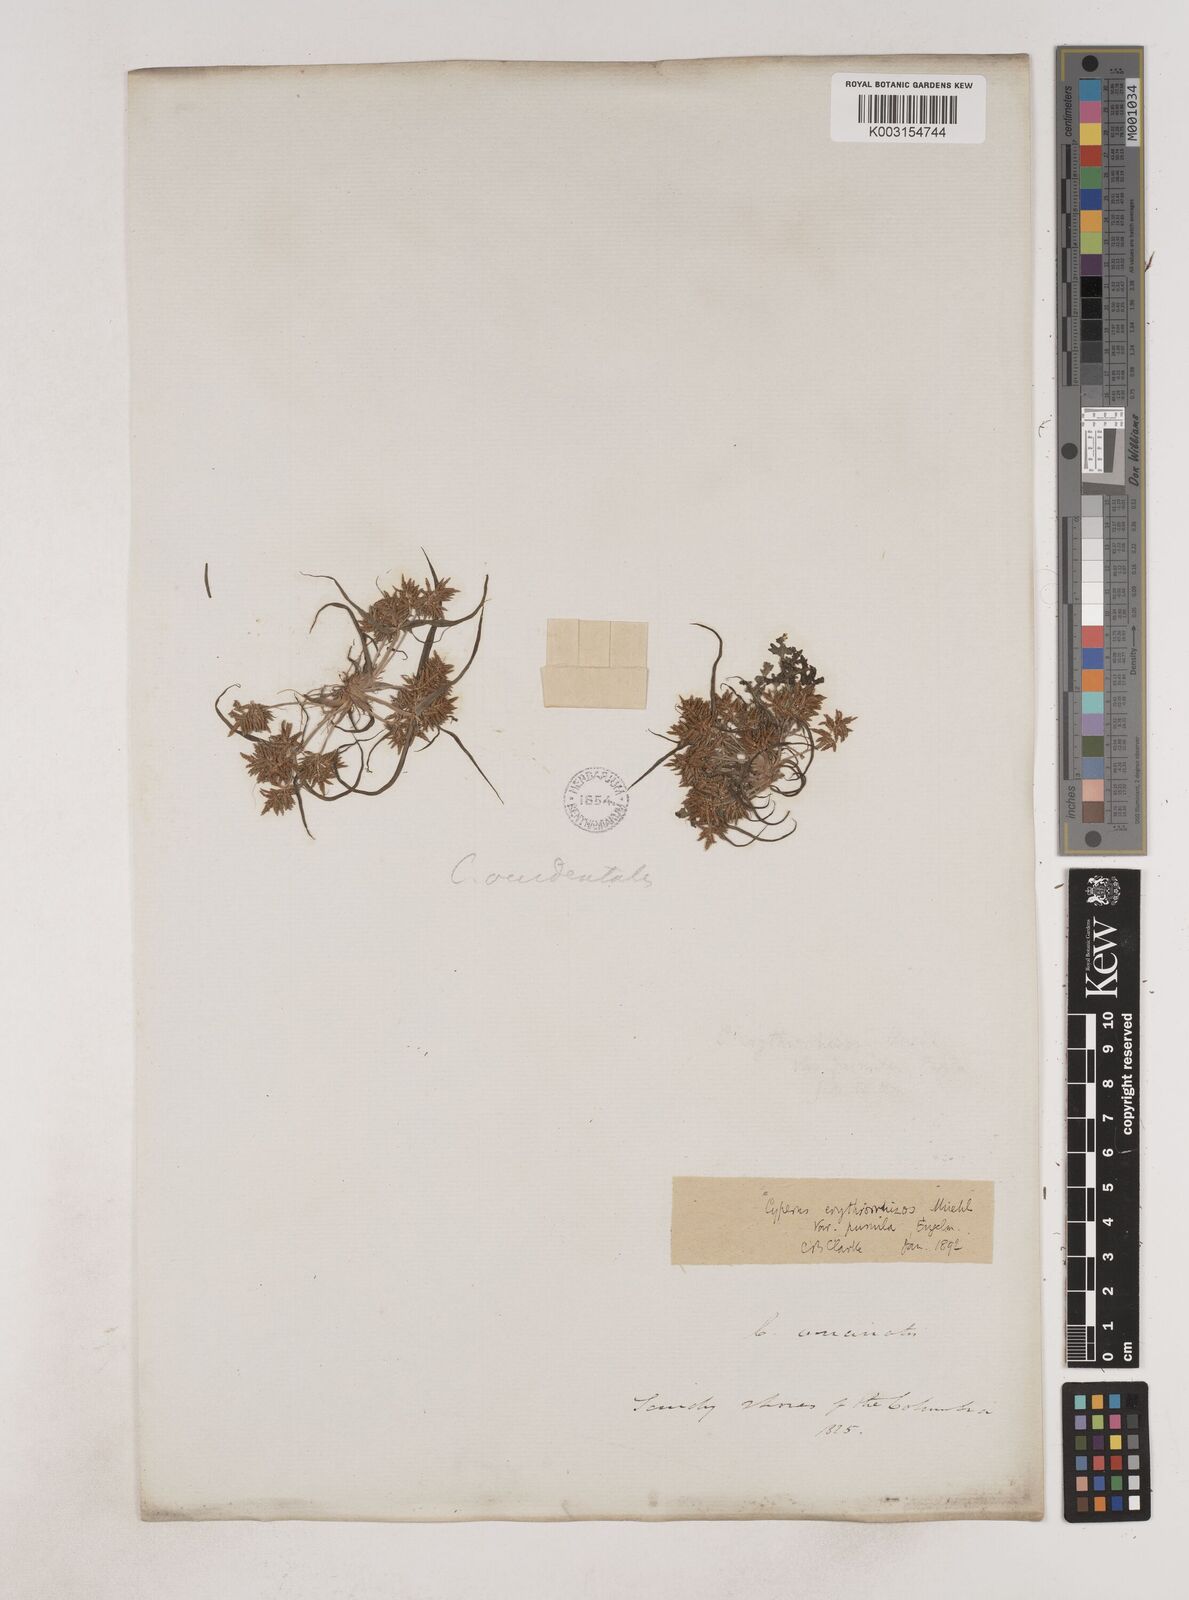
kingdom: Plantae
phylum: Tracheophyta
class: Liliopsida
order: Poales
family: Cyperaceae
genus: Cyperus
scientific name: Cyperus erythrorhizos
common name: Red-root flat sedge
